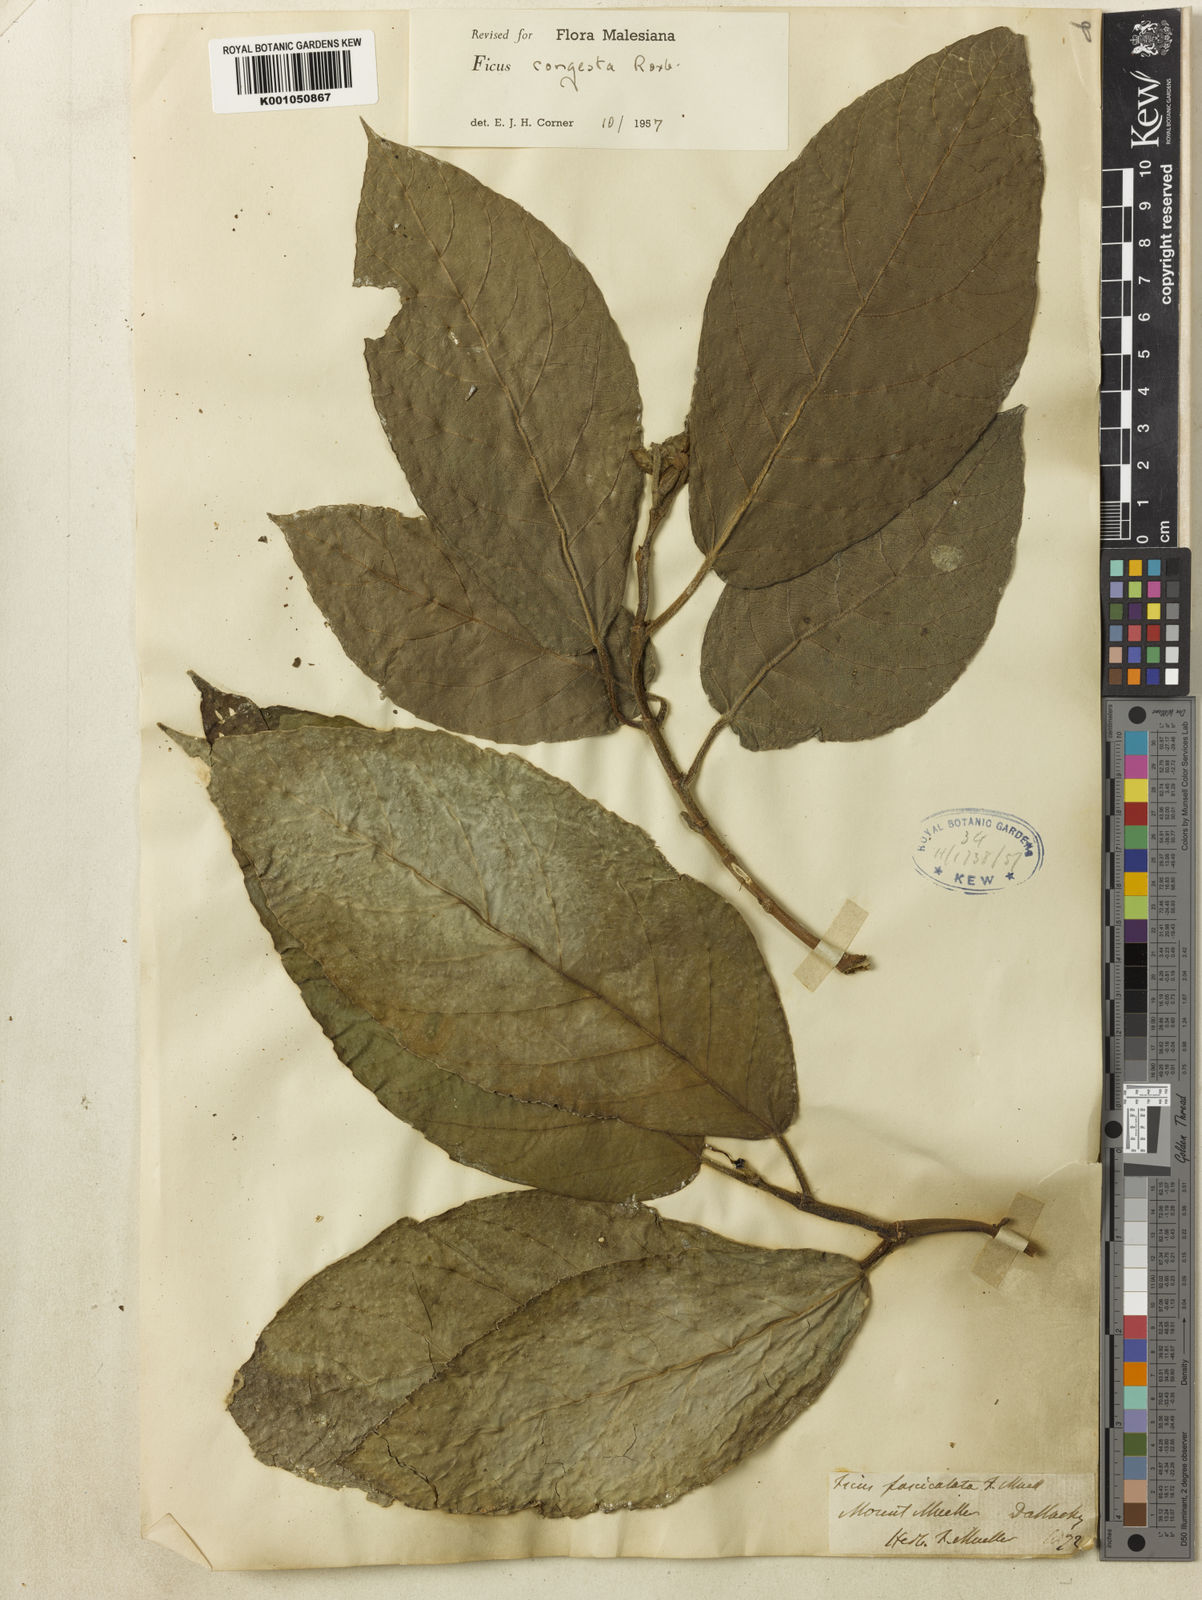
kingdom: Plantae
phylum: Tracheophyta
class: Magnoliopsida
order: Rosales
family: Moraceae
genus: Ficus
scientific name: Ficus congesta
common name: Cluster fig
